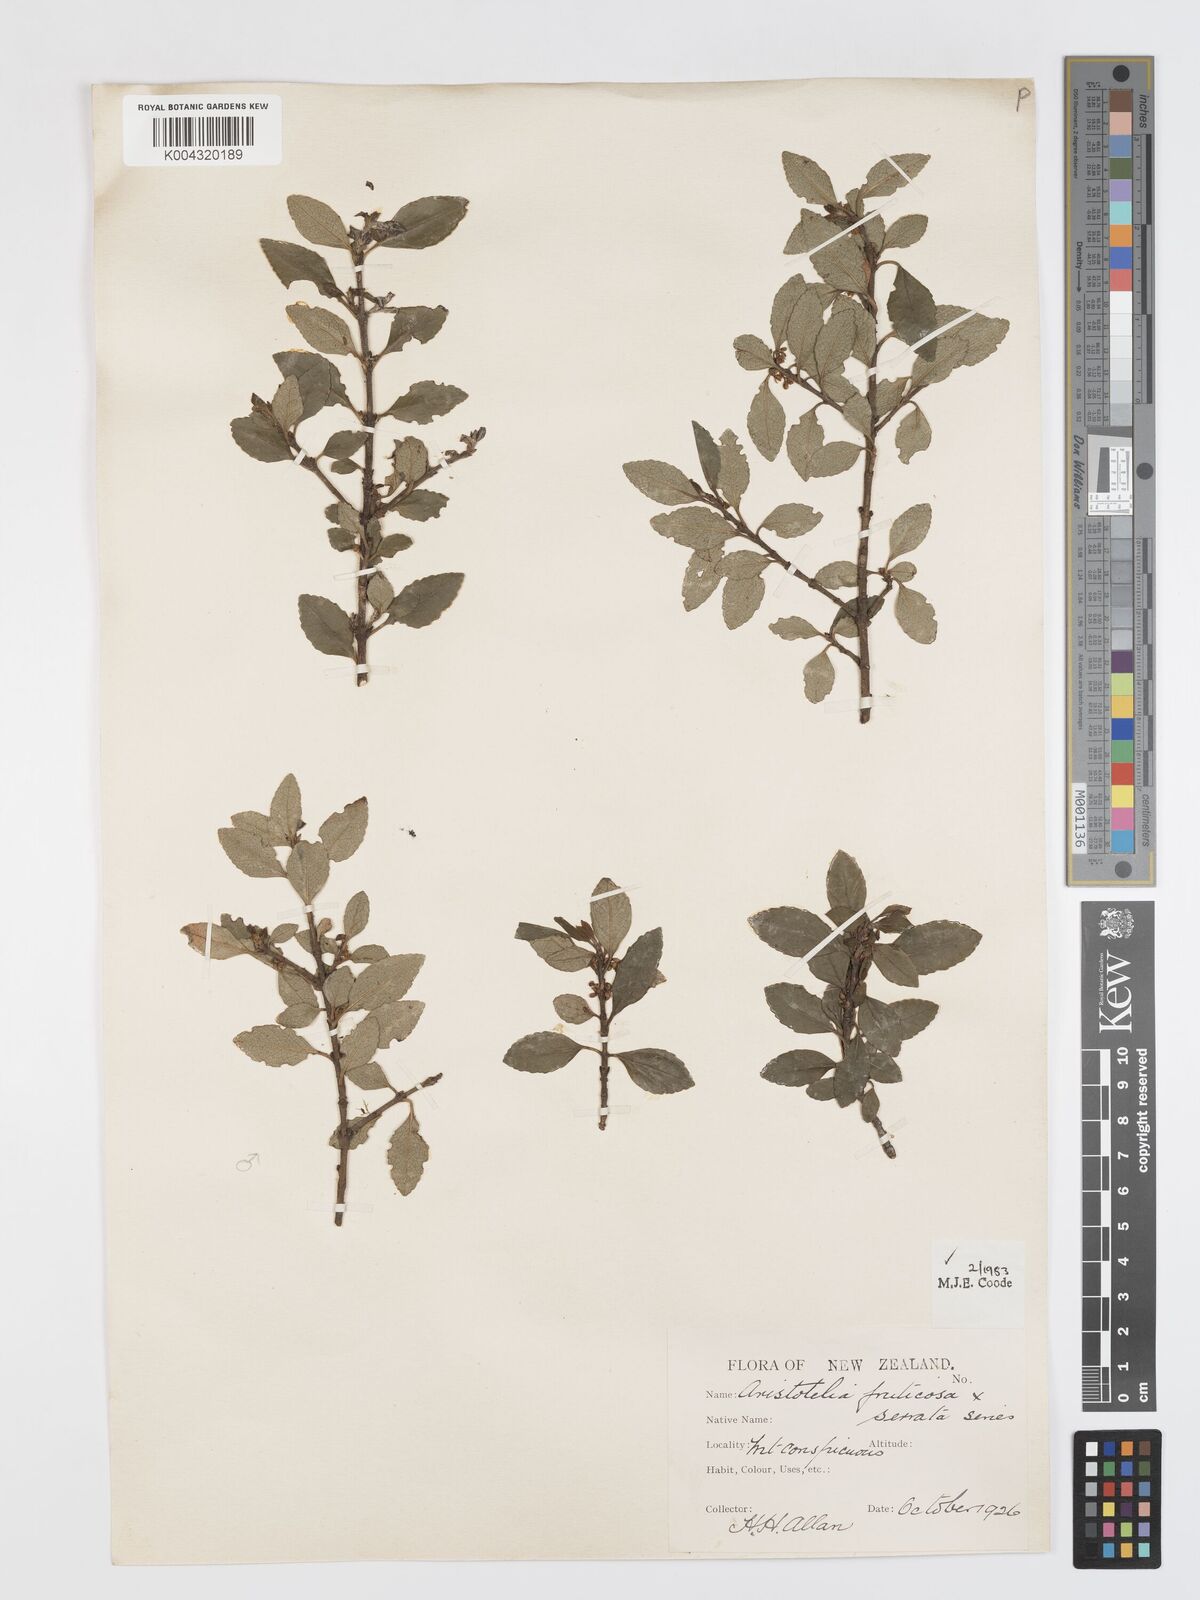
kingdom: Plantae
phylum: Tracheophyta
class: Magnoliopsida
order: Oxalidales
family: Elaeocarpaceae
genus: Aristotelia
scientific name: Aristotelia fruticosa
